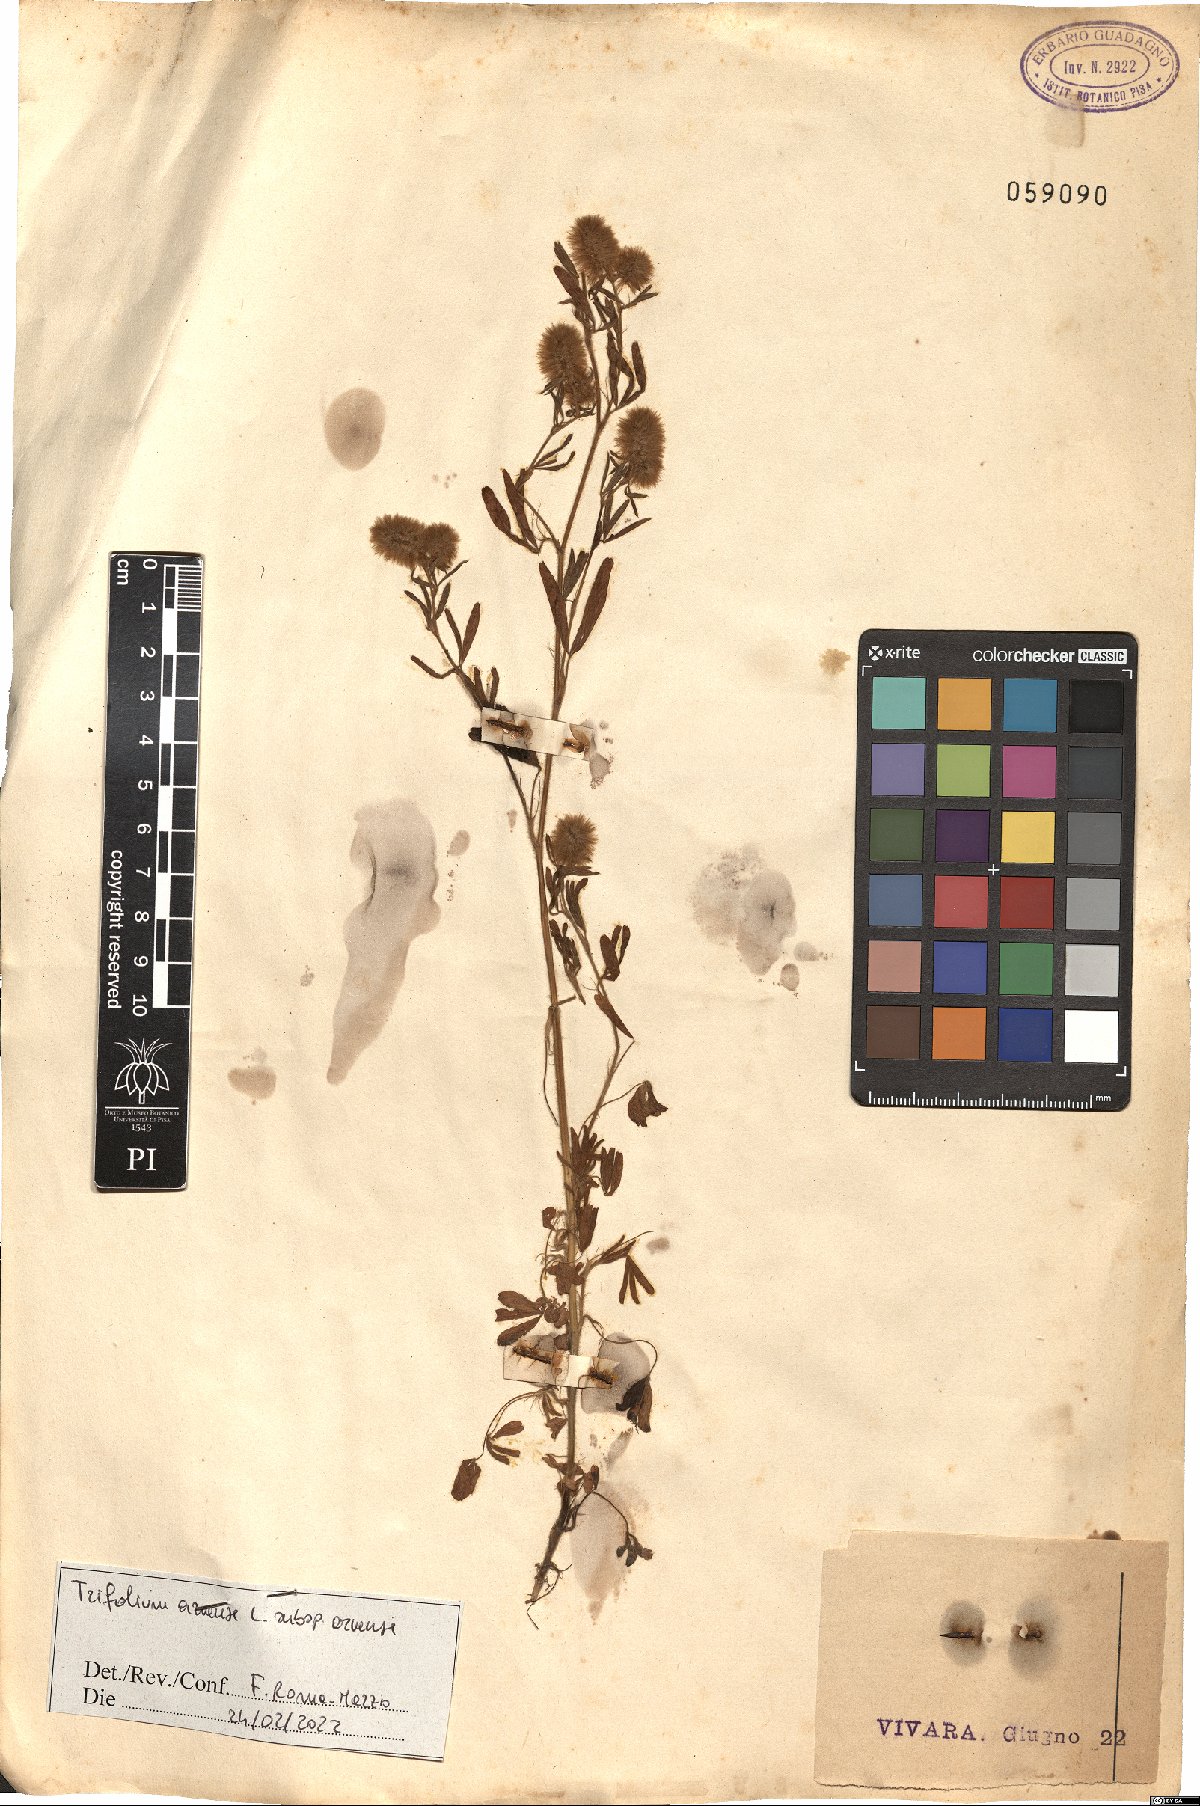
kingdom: Plantae
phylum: Tracheophyta
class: Magnoliopsida
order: Fabales
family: Fabaceae
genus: Trifolium
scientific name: Trifolium arvense
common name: Hare's-foot clover
